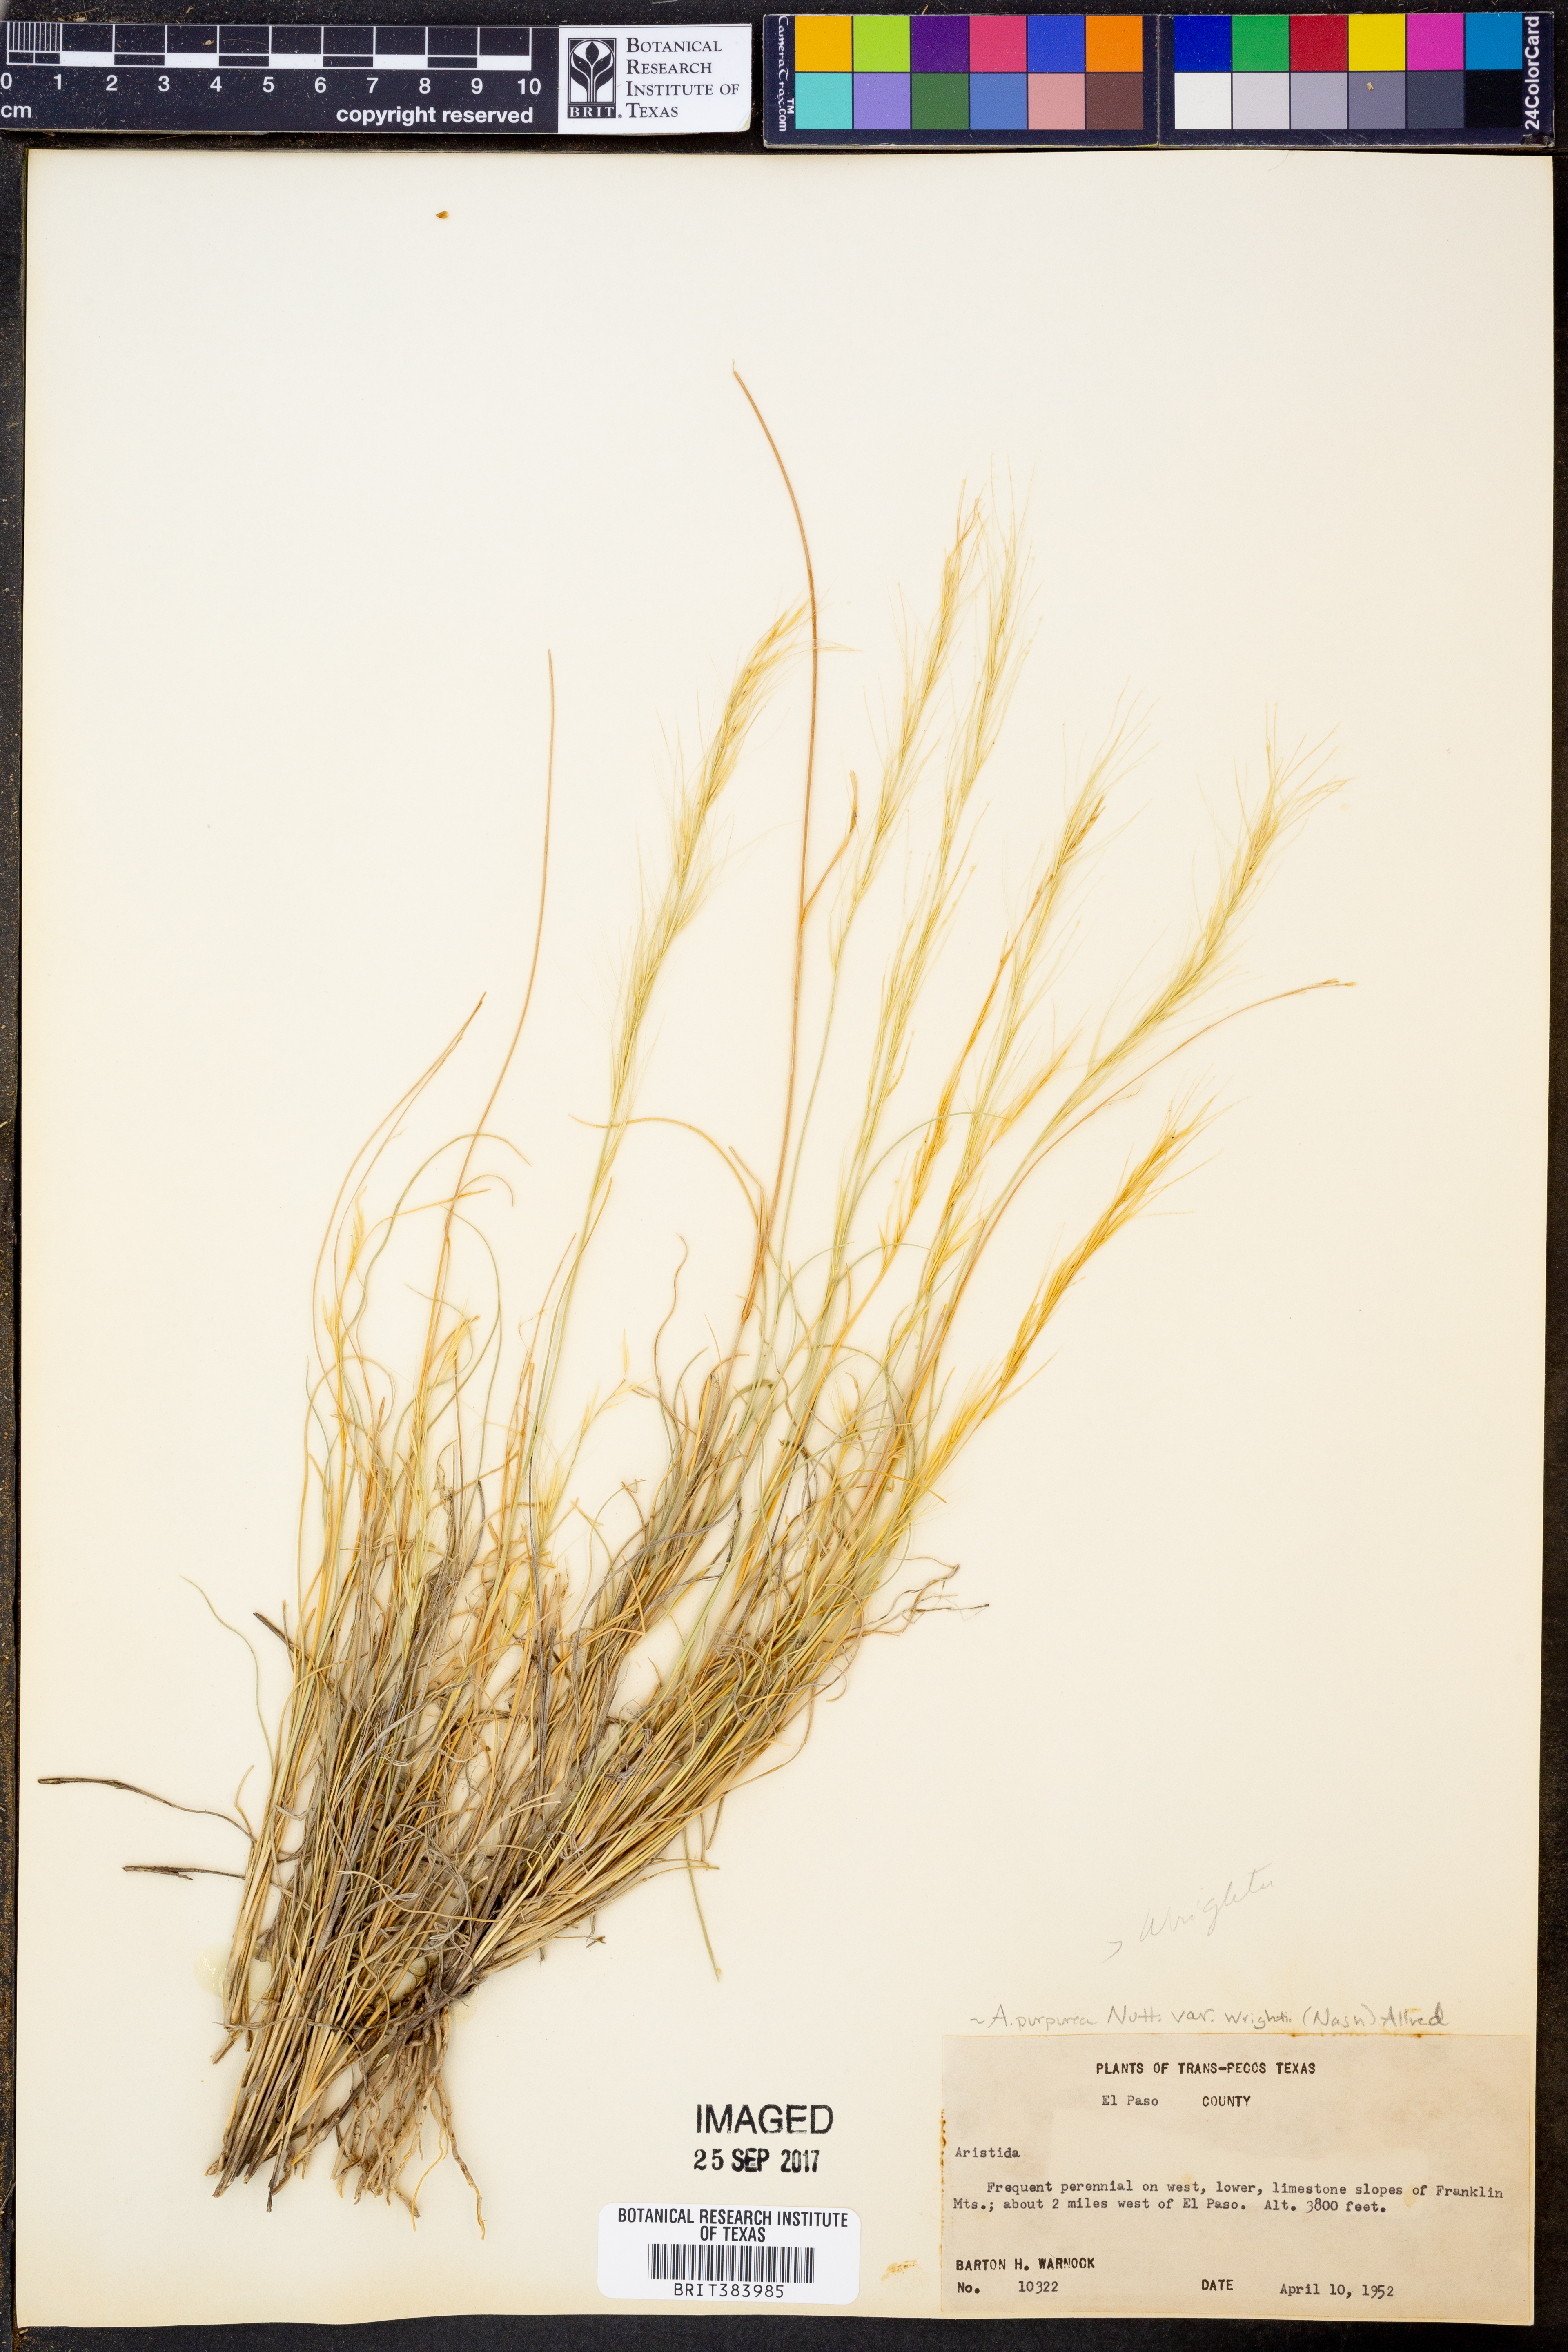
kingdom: Plantae
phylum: Tracheophyta
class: Liliopsida
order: Poales
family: Poaceae
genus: Aristida
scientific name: Aristida wrightii
